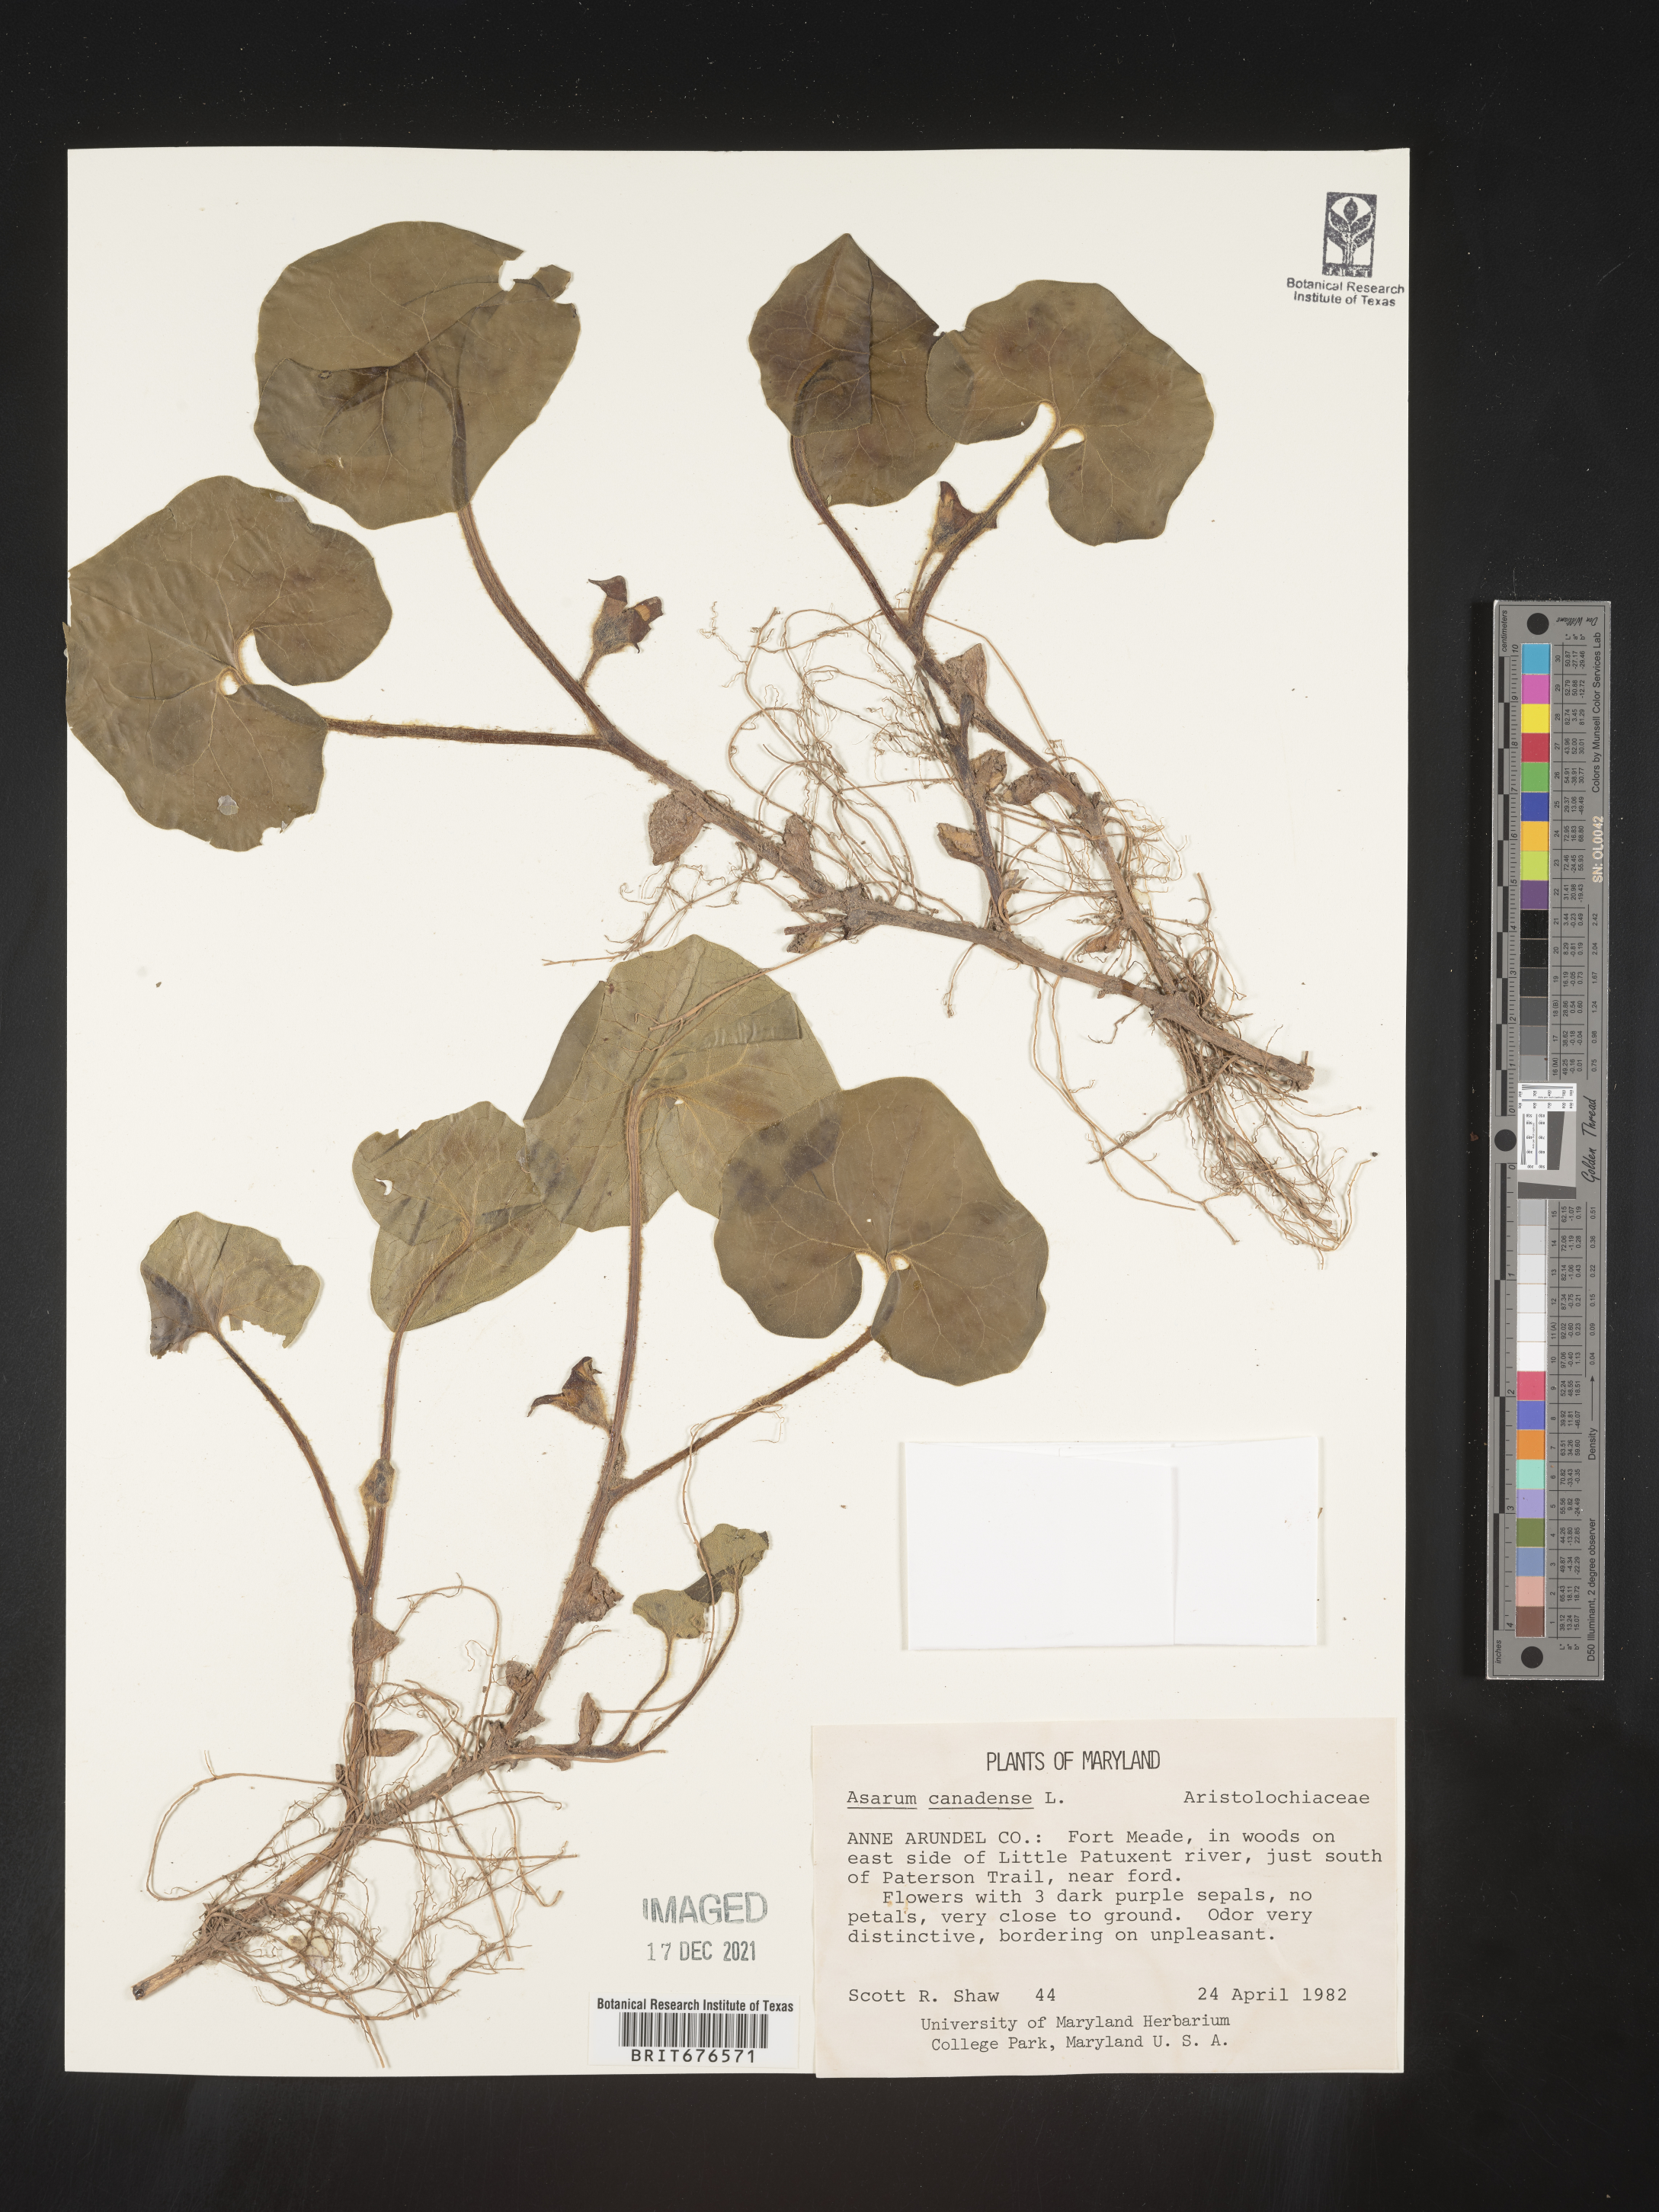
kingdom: Plantae
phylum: Tracheophyta
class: Magnoliopsida
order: Piperales
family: Aristolochiaceae
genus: Asarum
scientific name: Asarum canadense
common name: Wild ginger
